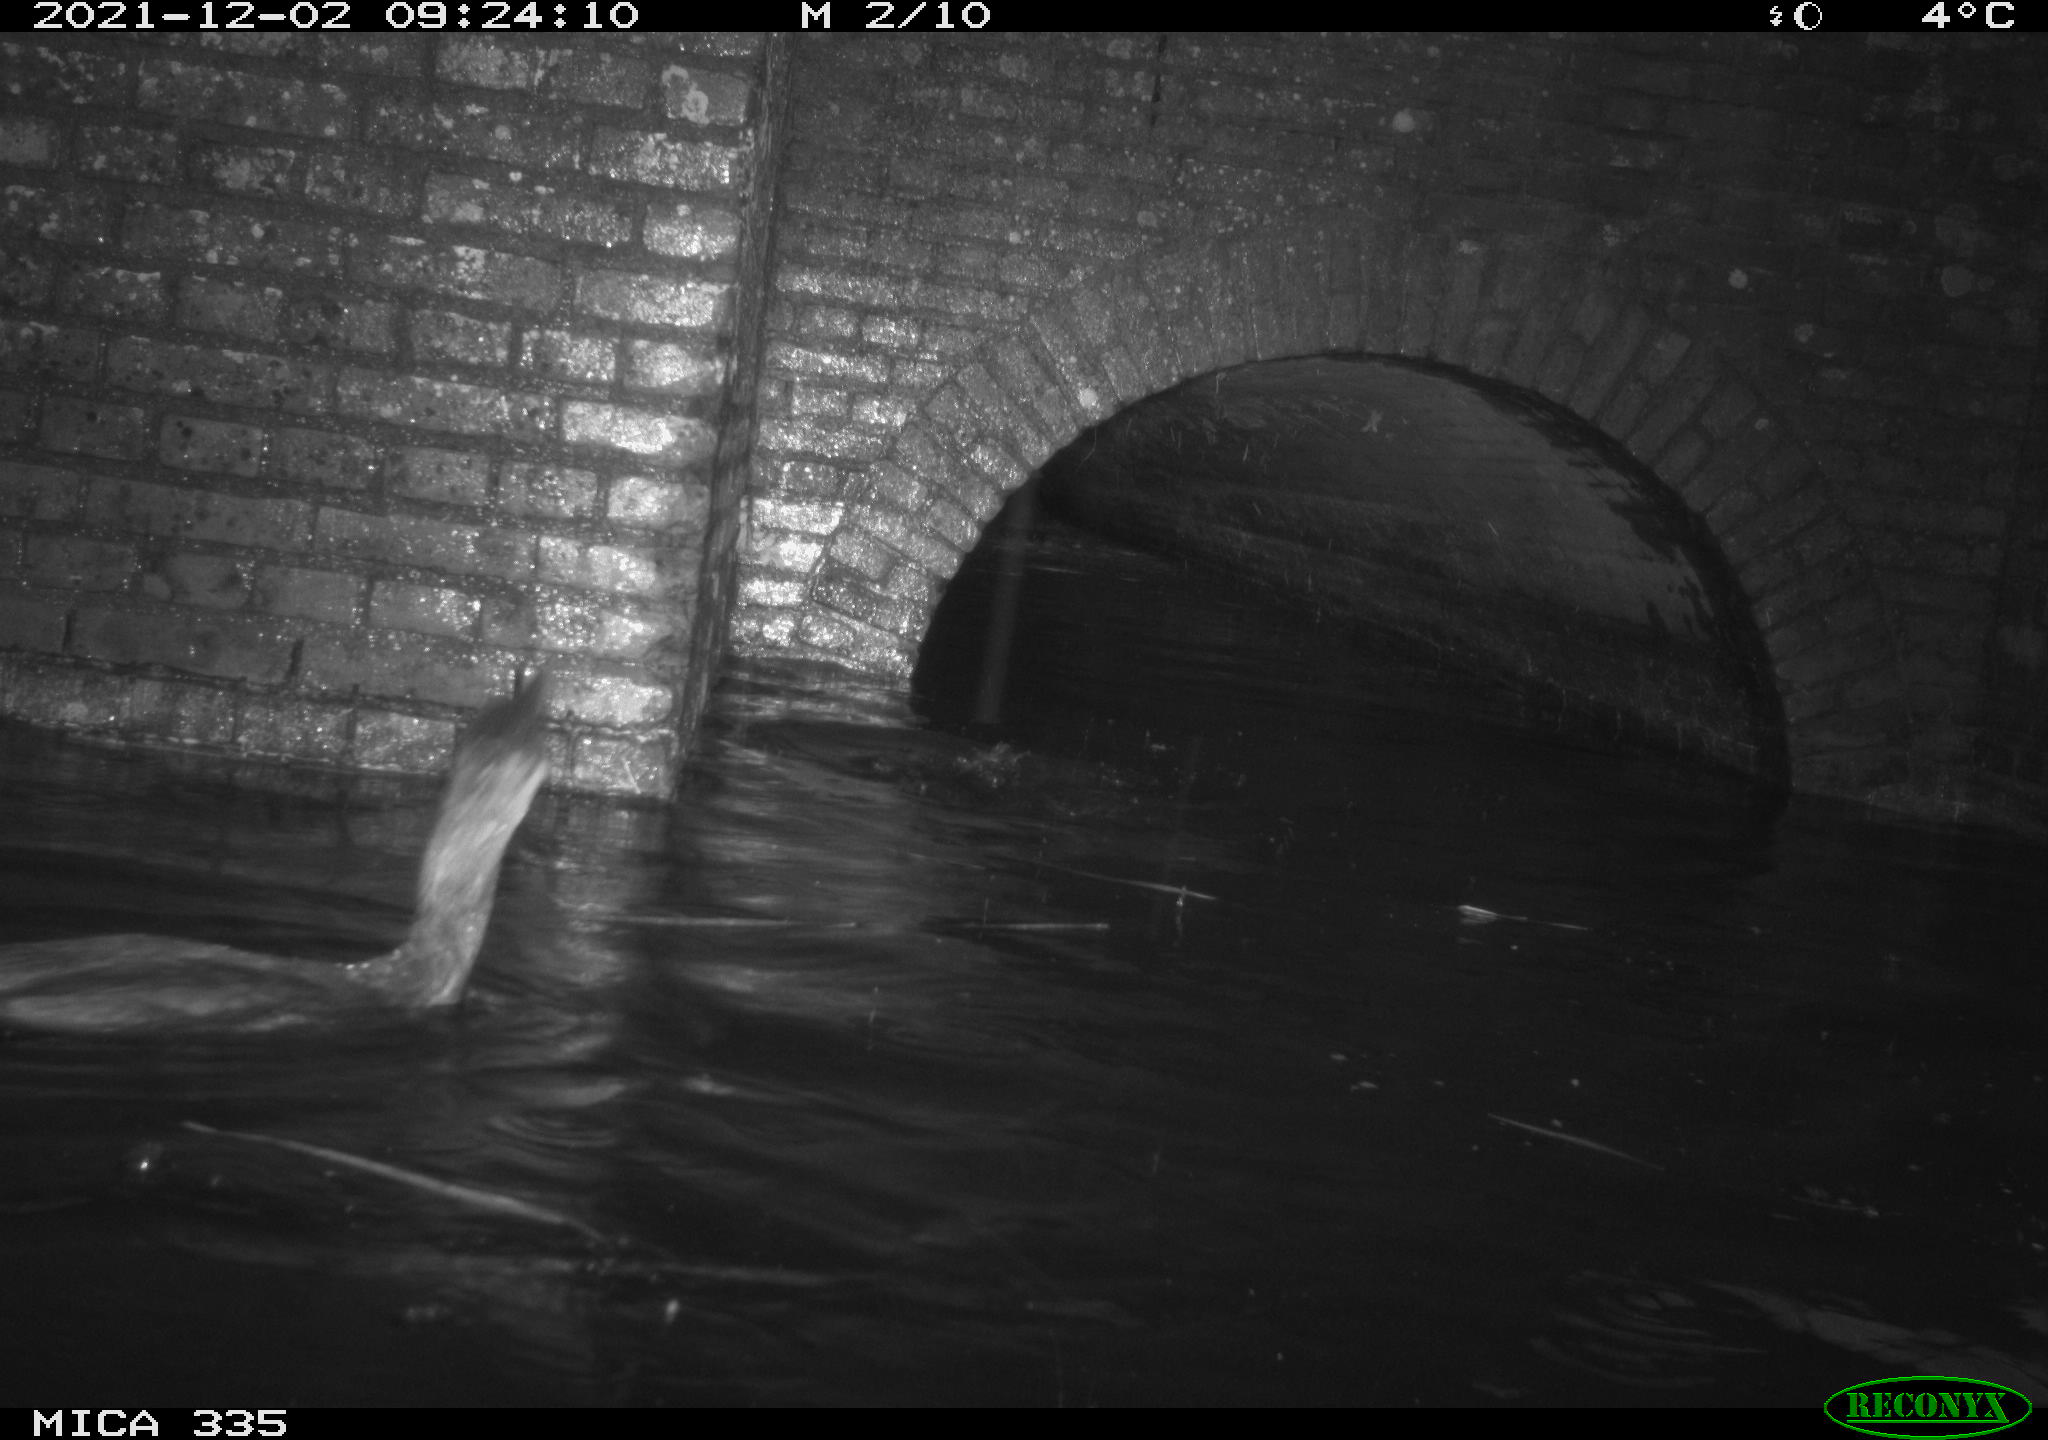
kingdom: Animalia
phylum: Chordata
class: Aves
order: Suliformes
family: Phalacrocoracidae
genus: Phalacrocorax
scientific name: Phalacrocorax carbo
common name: Great cormorant
